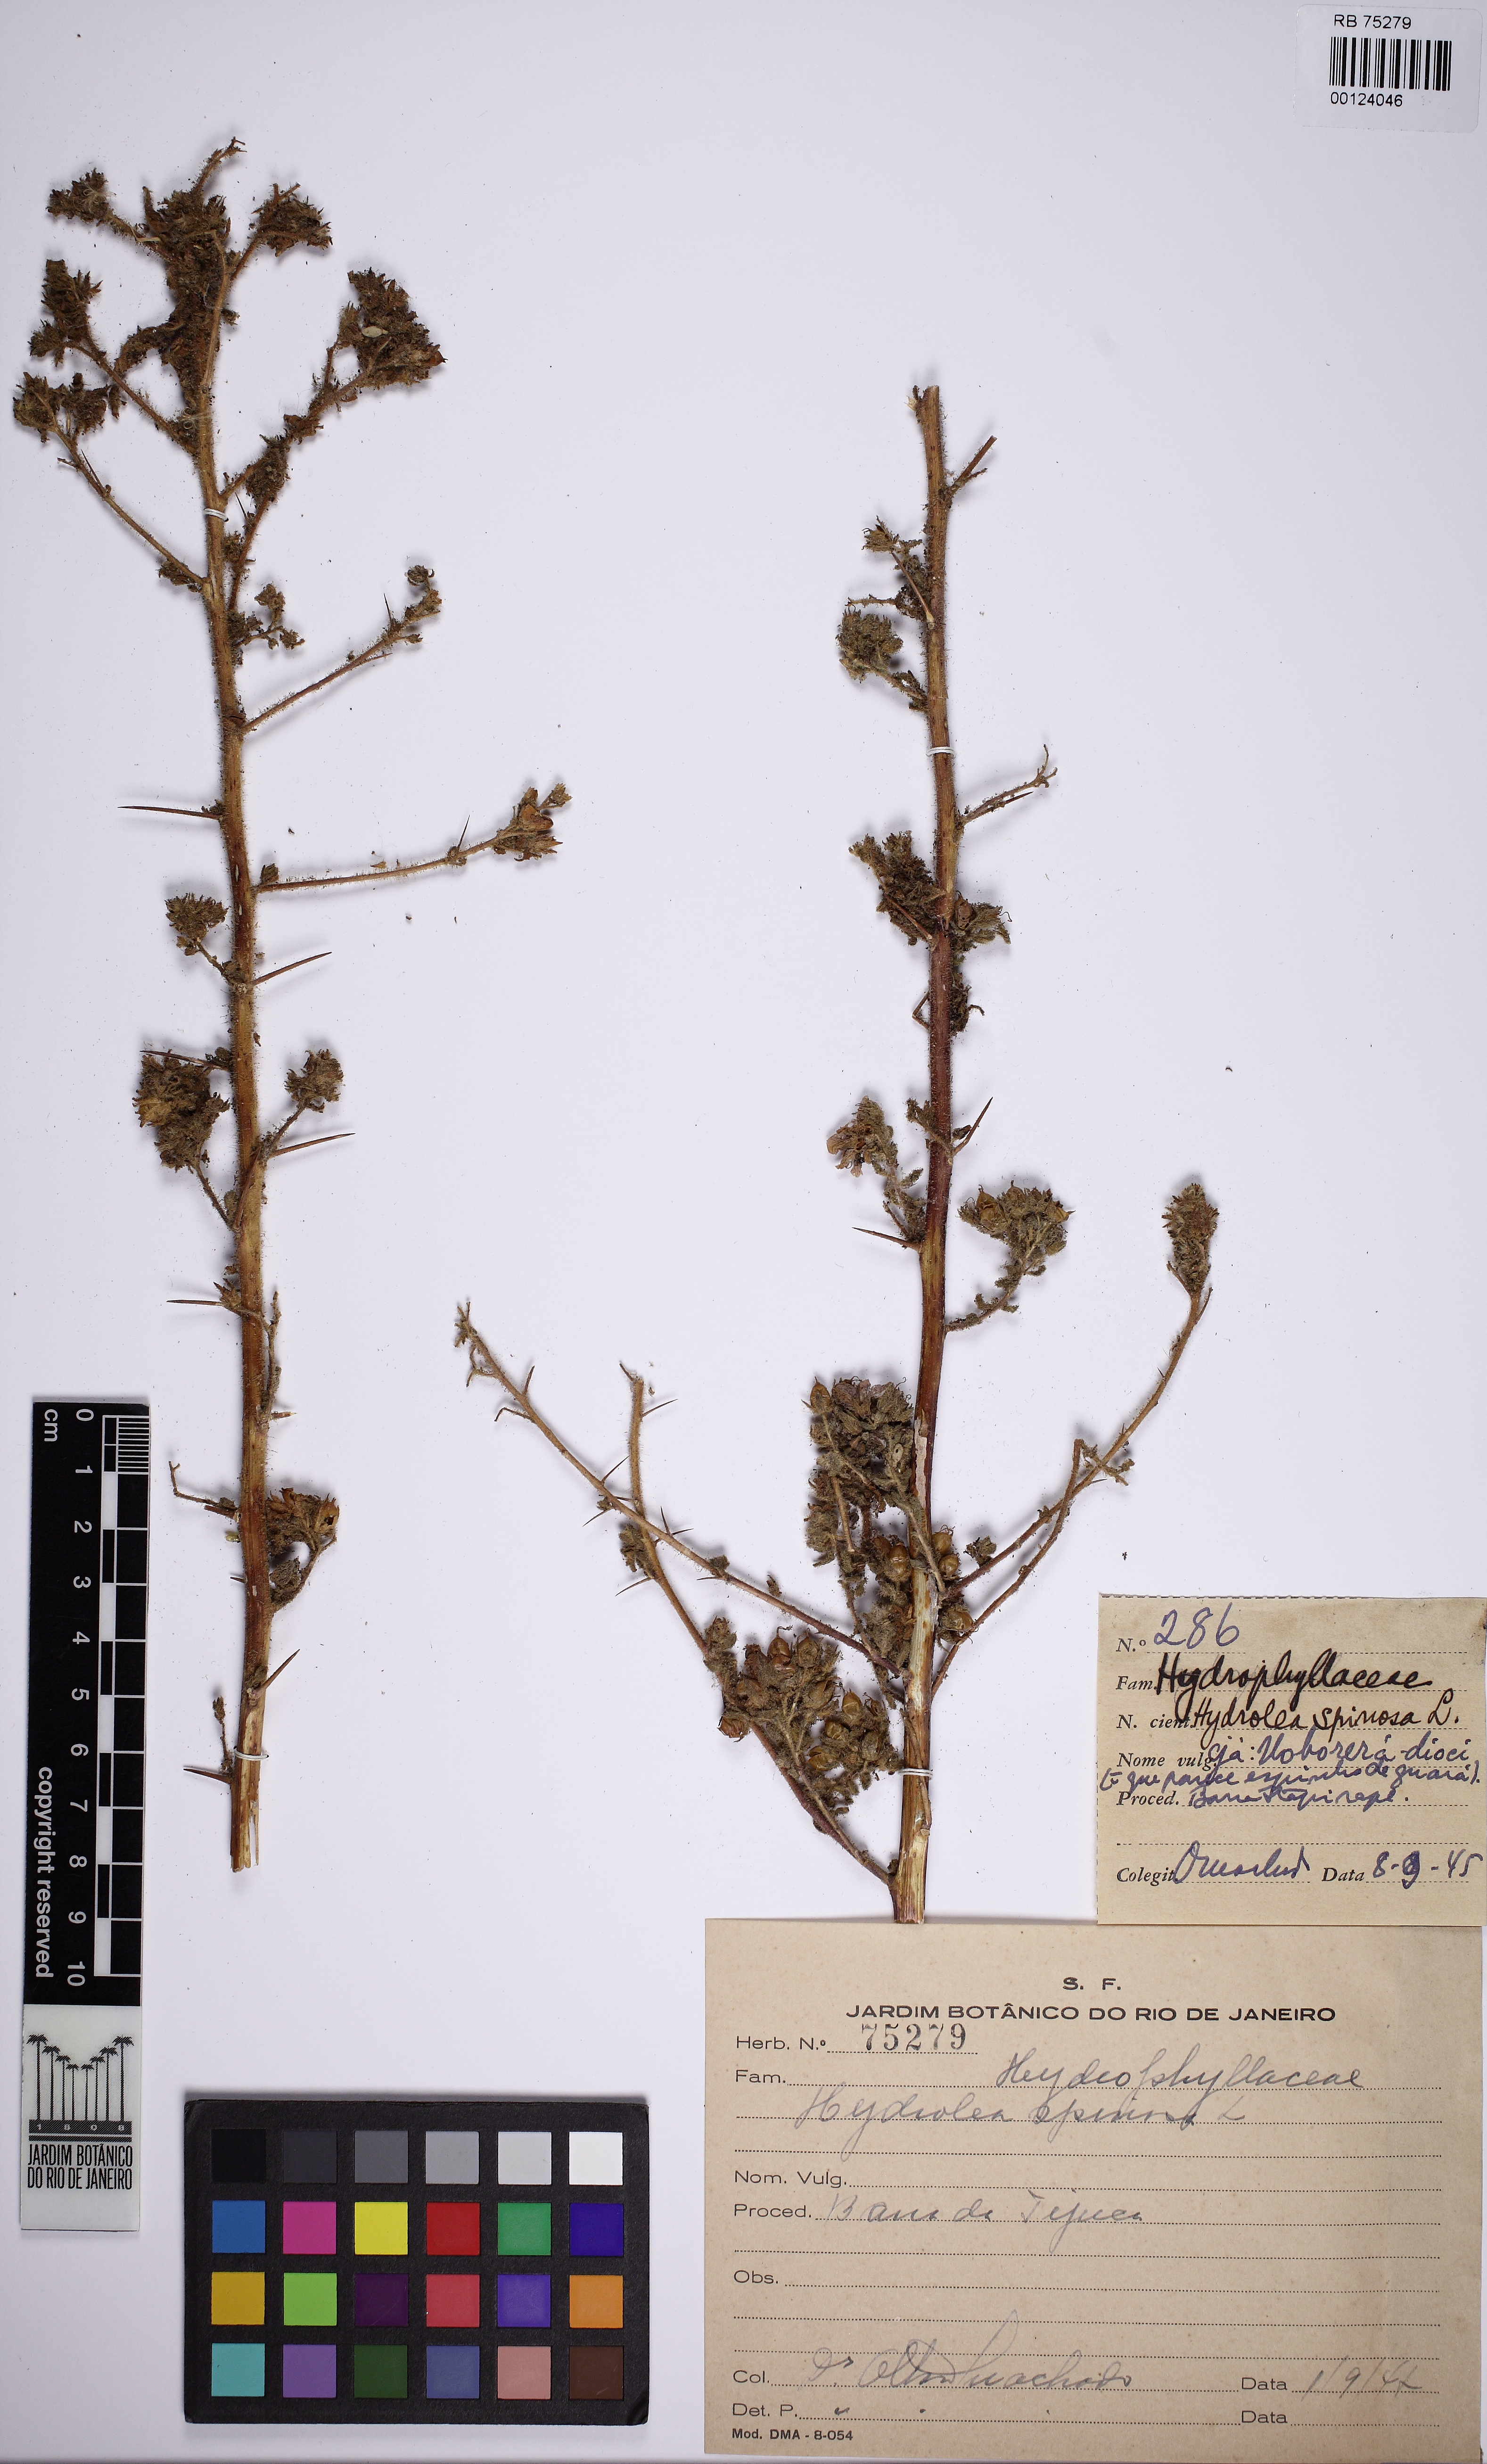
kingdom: Plantae
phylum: Tracheophyta
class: Magnoliopsida
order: Solanales
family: Hydroleaceae
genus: Hydrolea
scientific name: Hydrolea spinosa
